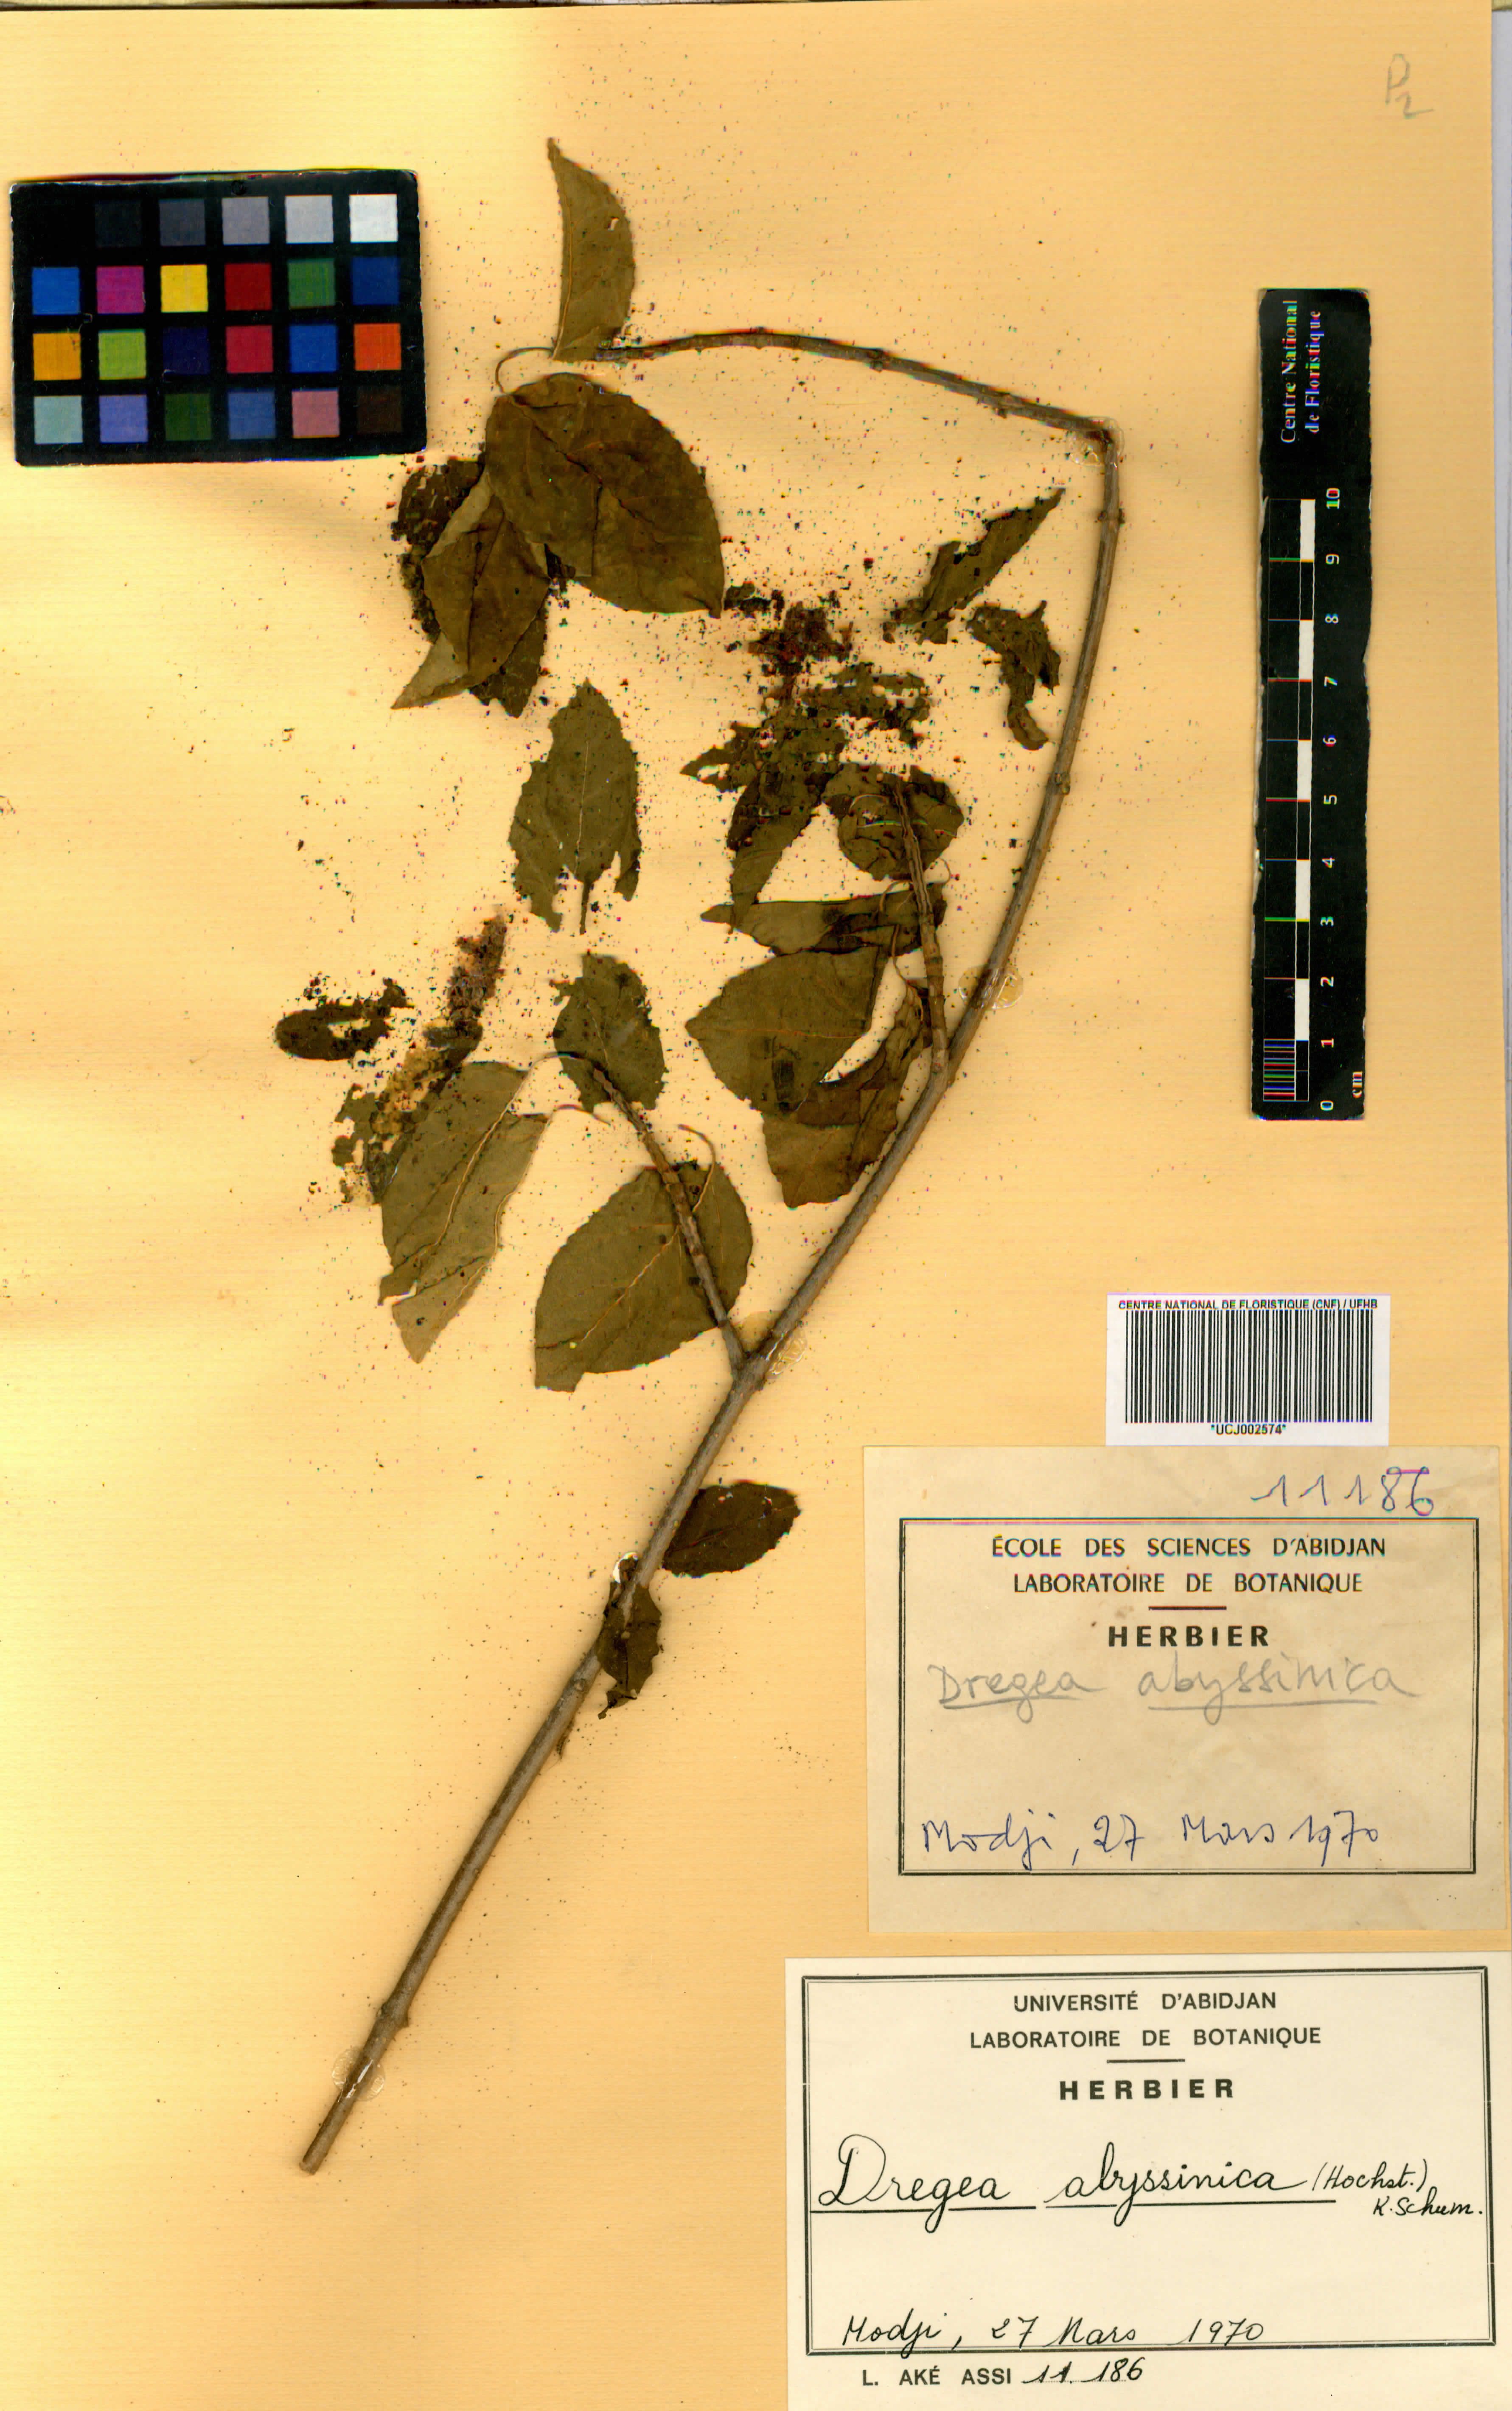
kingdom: Plantae
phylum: Tracheophyta
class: Magnoliopsida
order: Gentianales
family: Apocynaceae
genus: Stephanotis
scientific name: Stephanotis abyssinica
